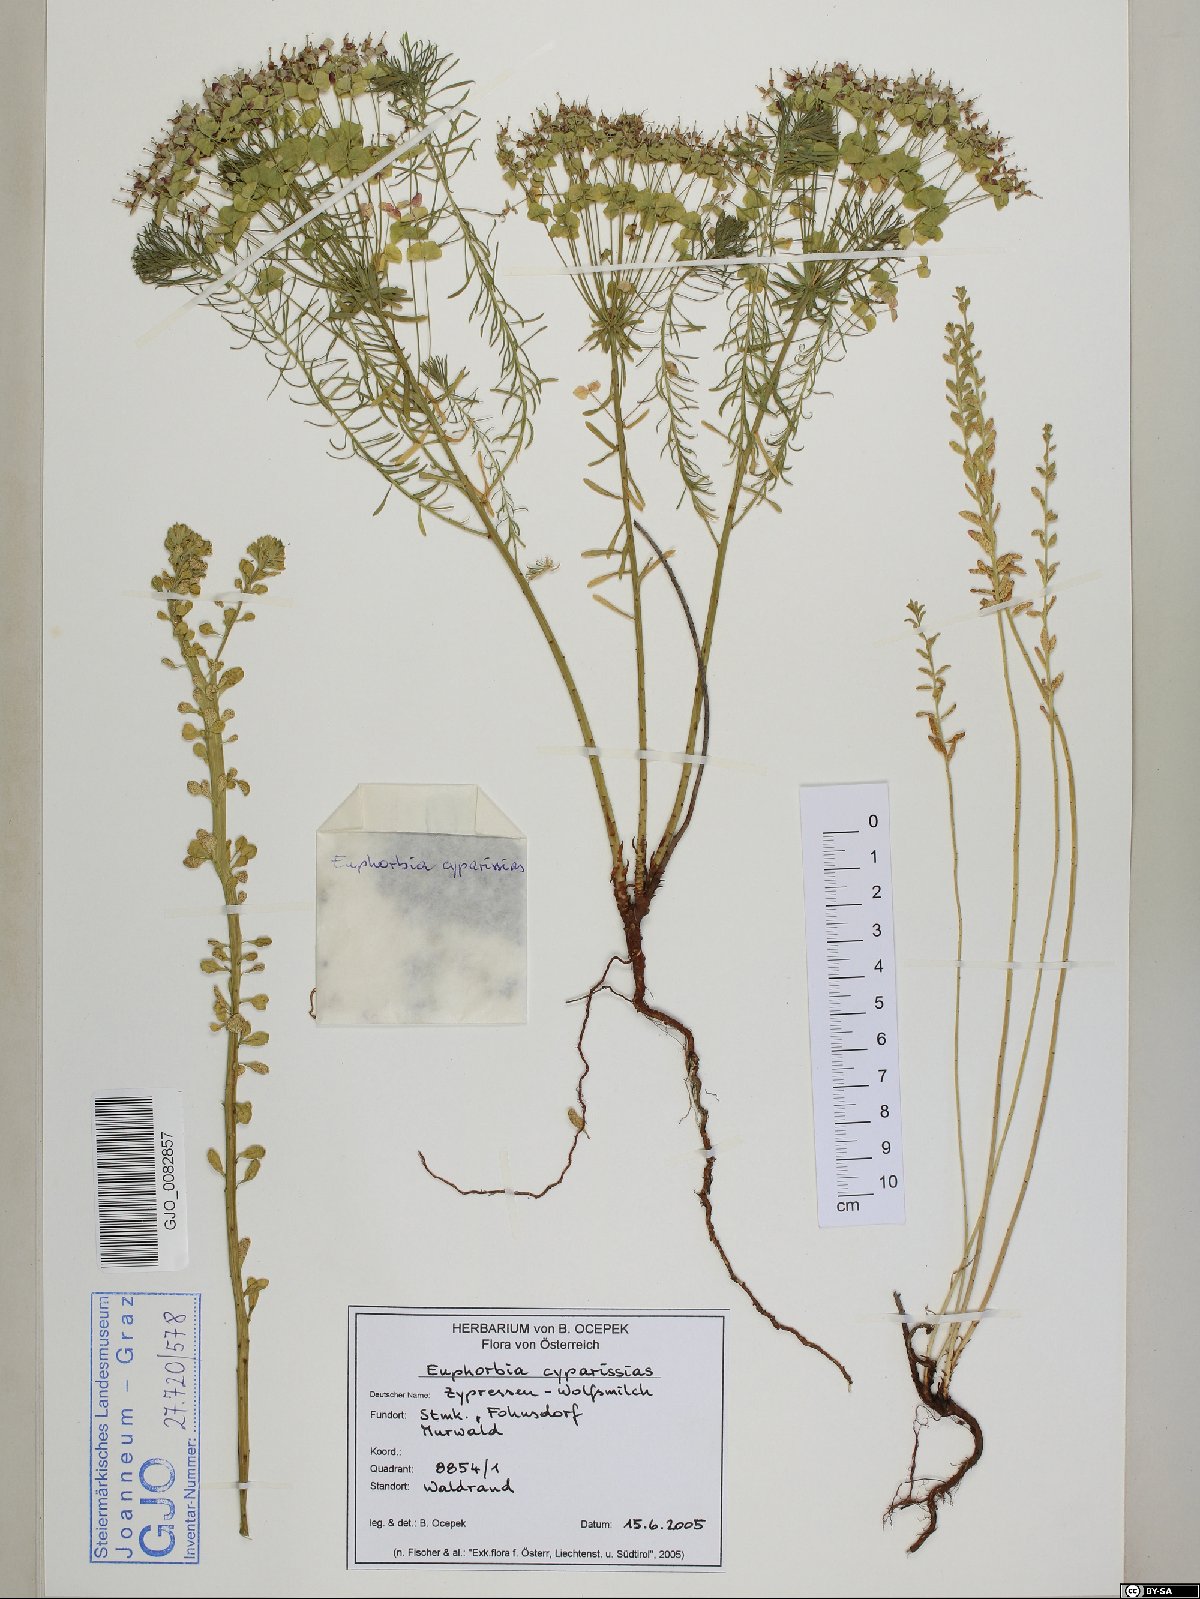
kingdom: Plantae
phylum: Tracheophyta
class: Magnoliopsida
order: Malpighiales
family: Euphorbiaceae
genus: Euphorbia
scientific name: Euphorbia cyparissias
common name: Cypress spurge
